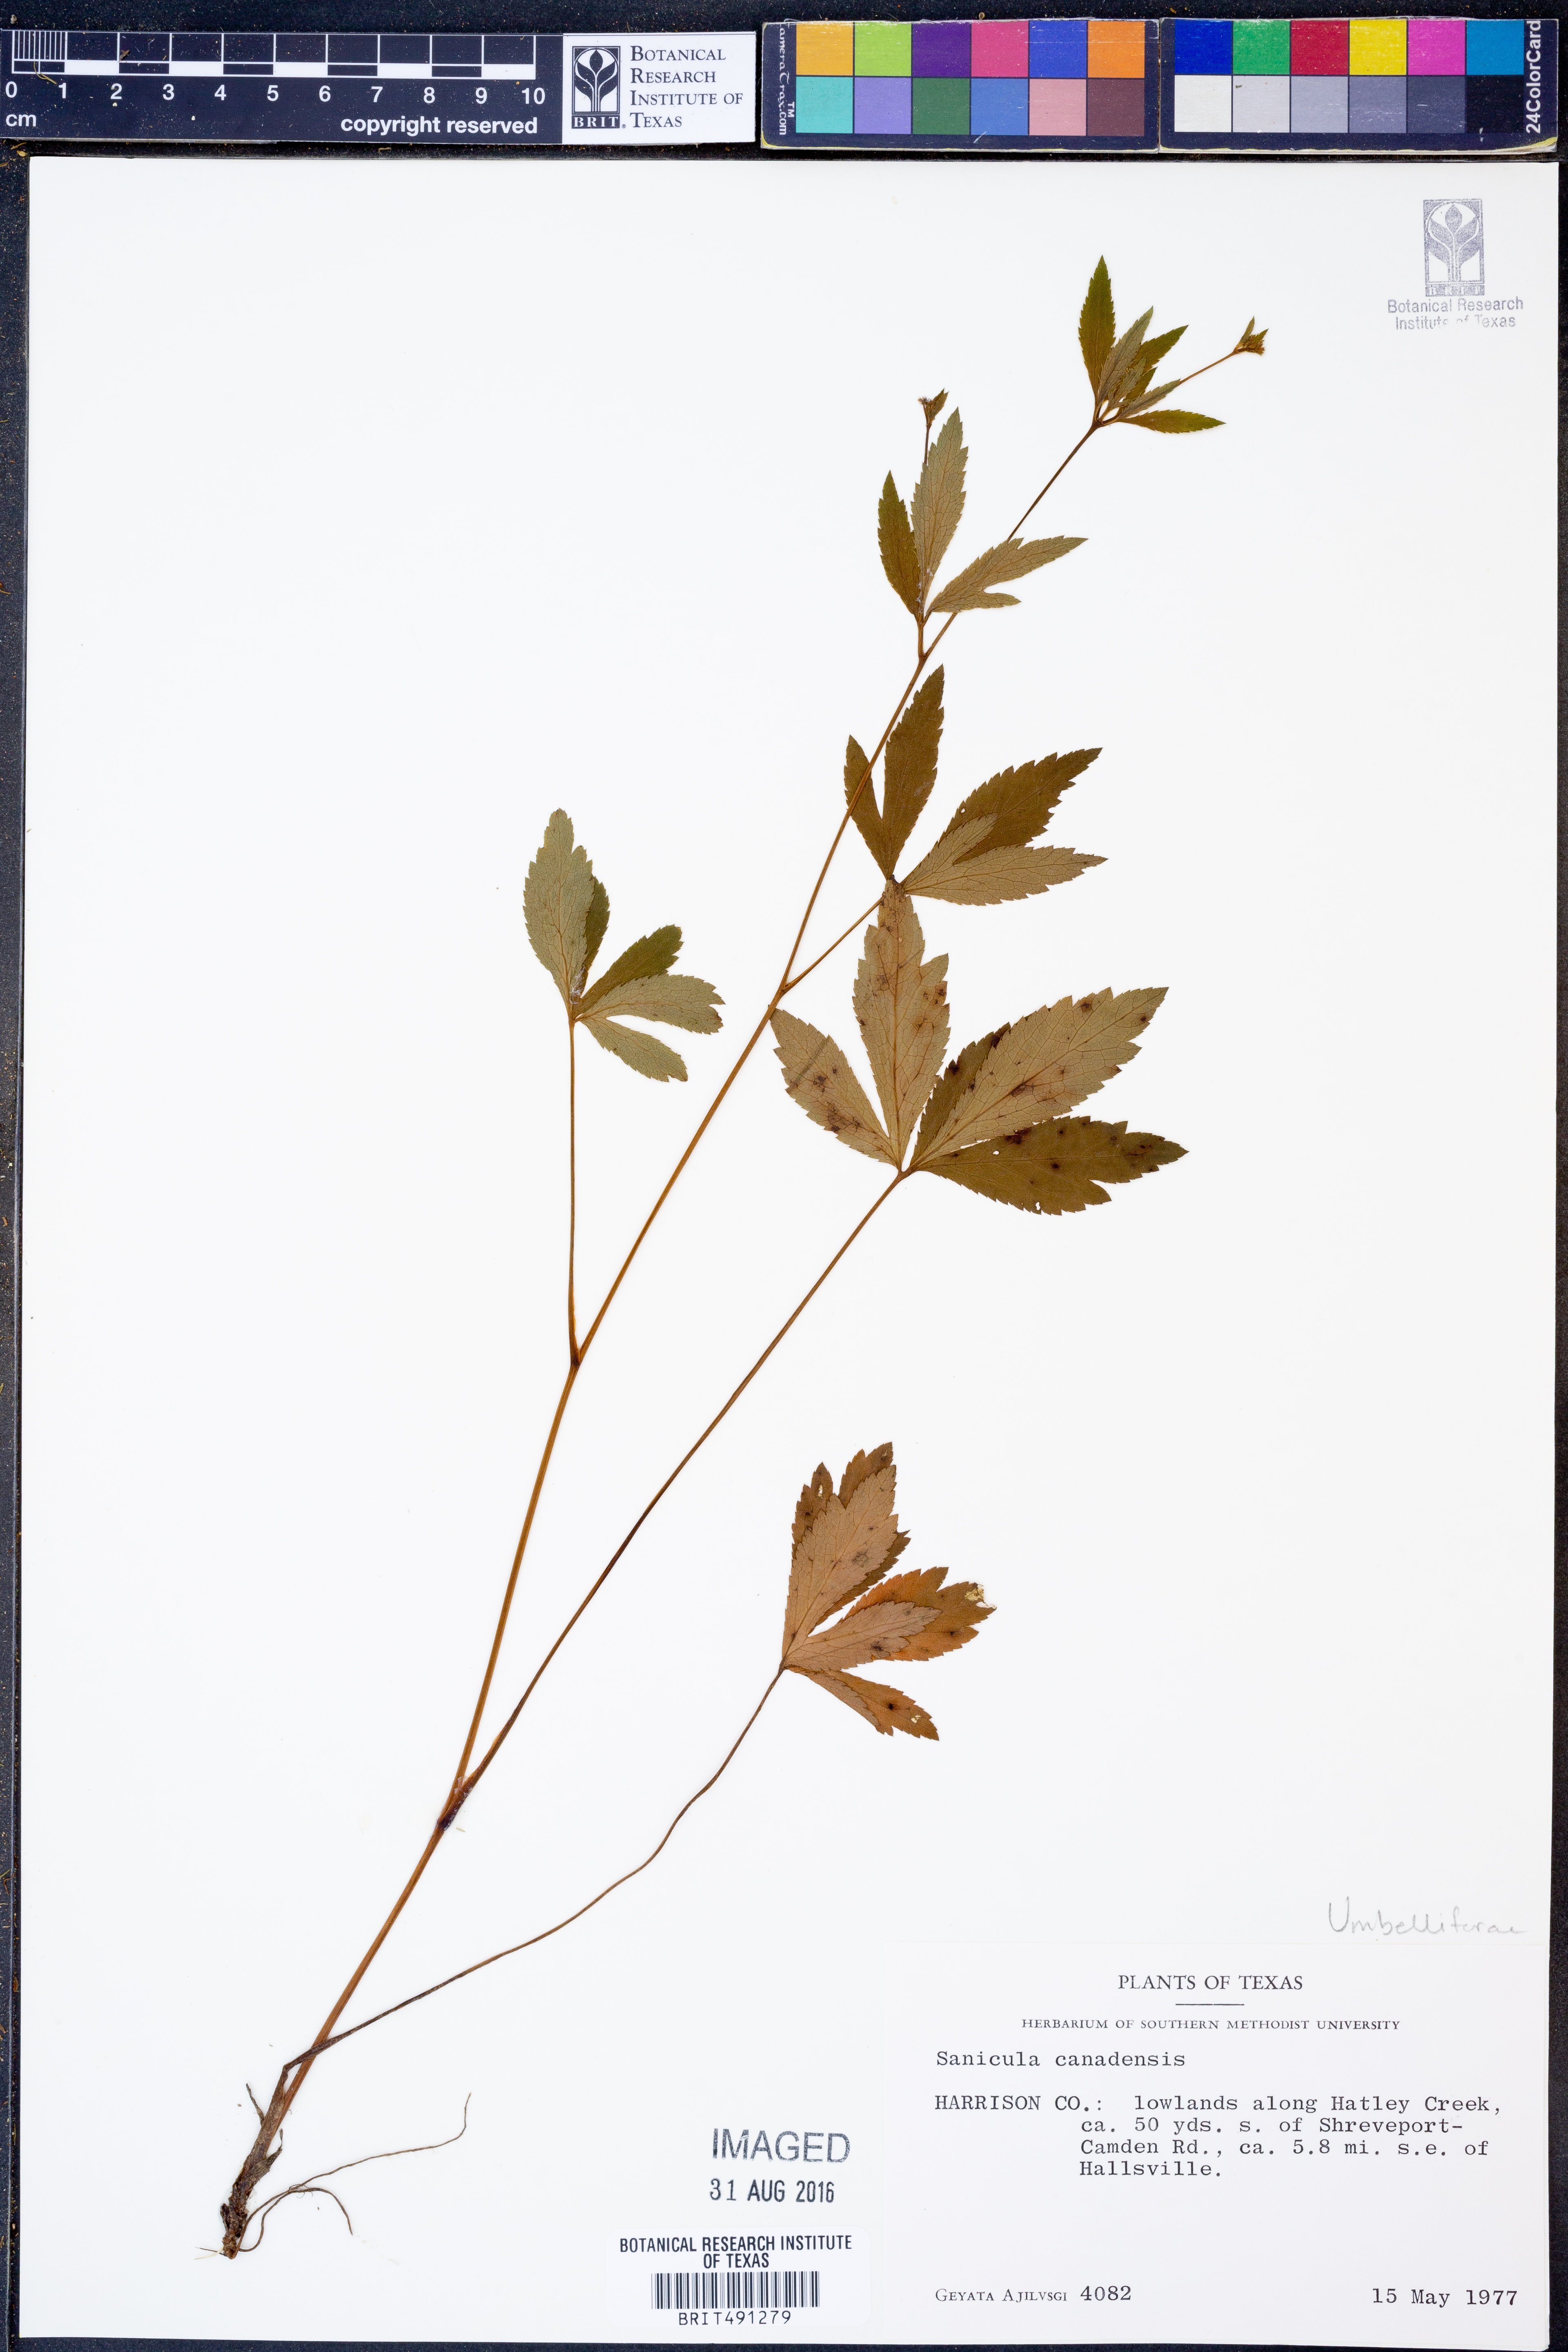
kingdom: Plantae
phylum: Tracheophyta
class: Magnoliopsida
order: Apiales
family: Apiaceae
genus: Sanicula
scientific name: Sanicula canadensis
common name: Canada sanicle
